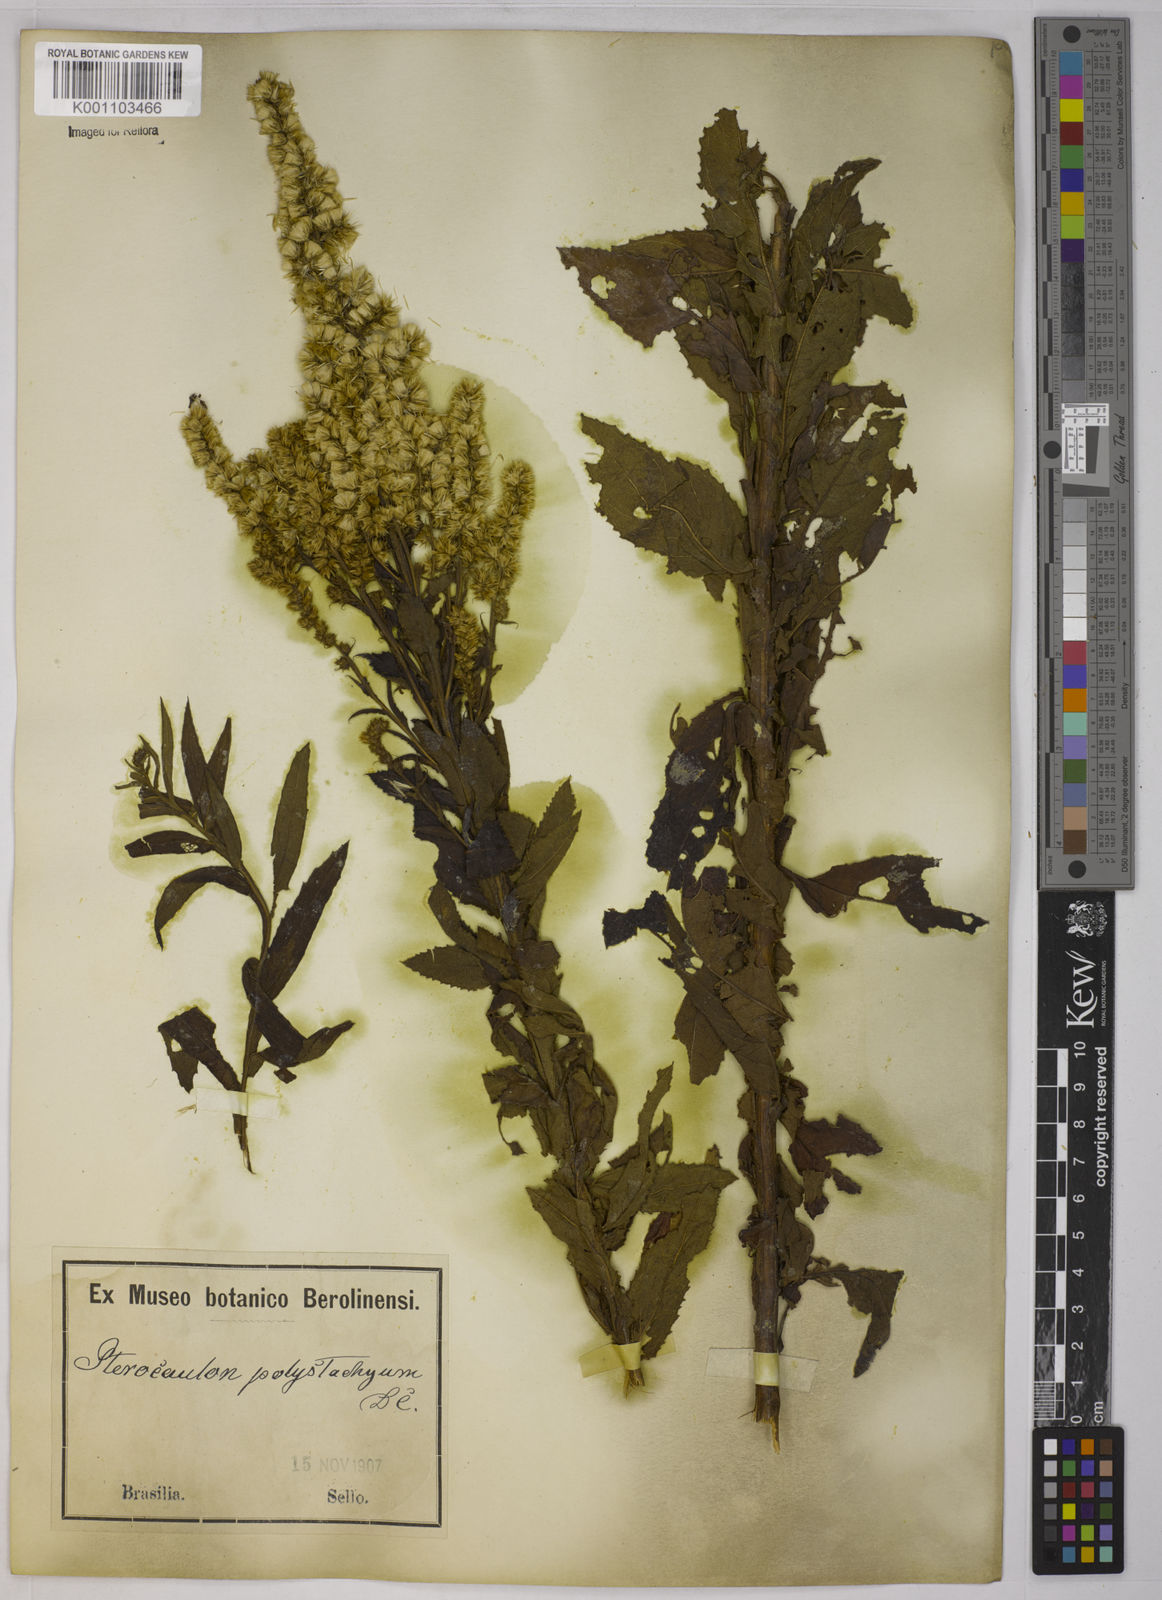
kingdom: Plantae
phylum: Tracheophyta
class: Magnoliopsida
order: Asterales
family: Asteraceae
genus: Pterocaulon
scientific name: Pterocaulon polystachyum
